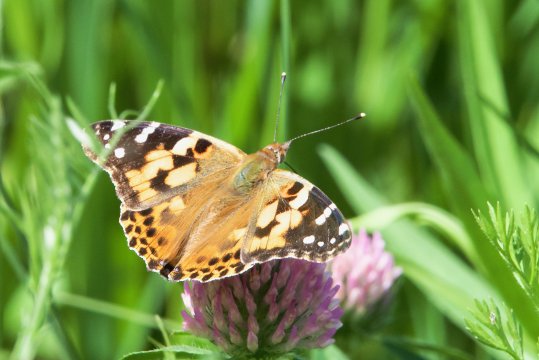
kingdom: Animalia
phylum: Arthropoda
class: Insecta
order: Lepidoptera
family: Nymphalidae
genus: Vanessa
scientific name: Vanessa cardui
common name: Painted Lady
